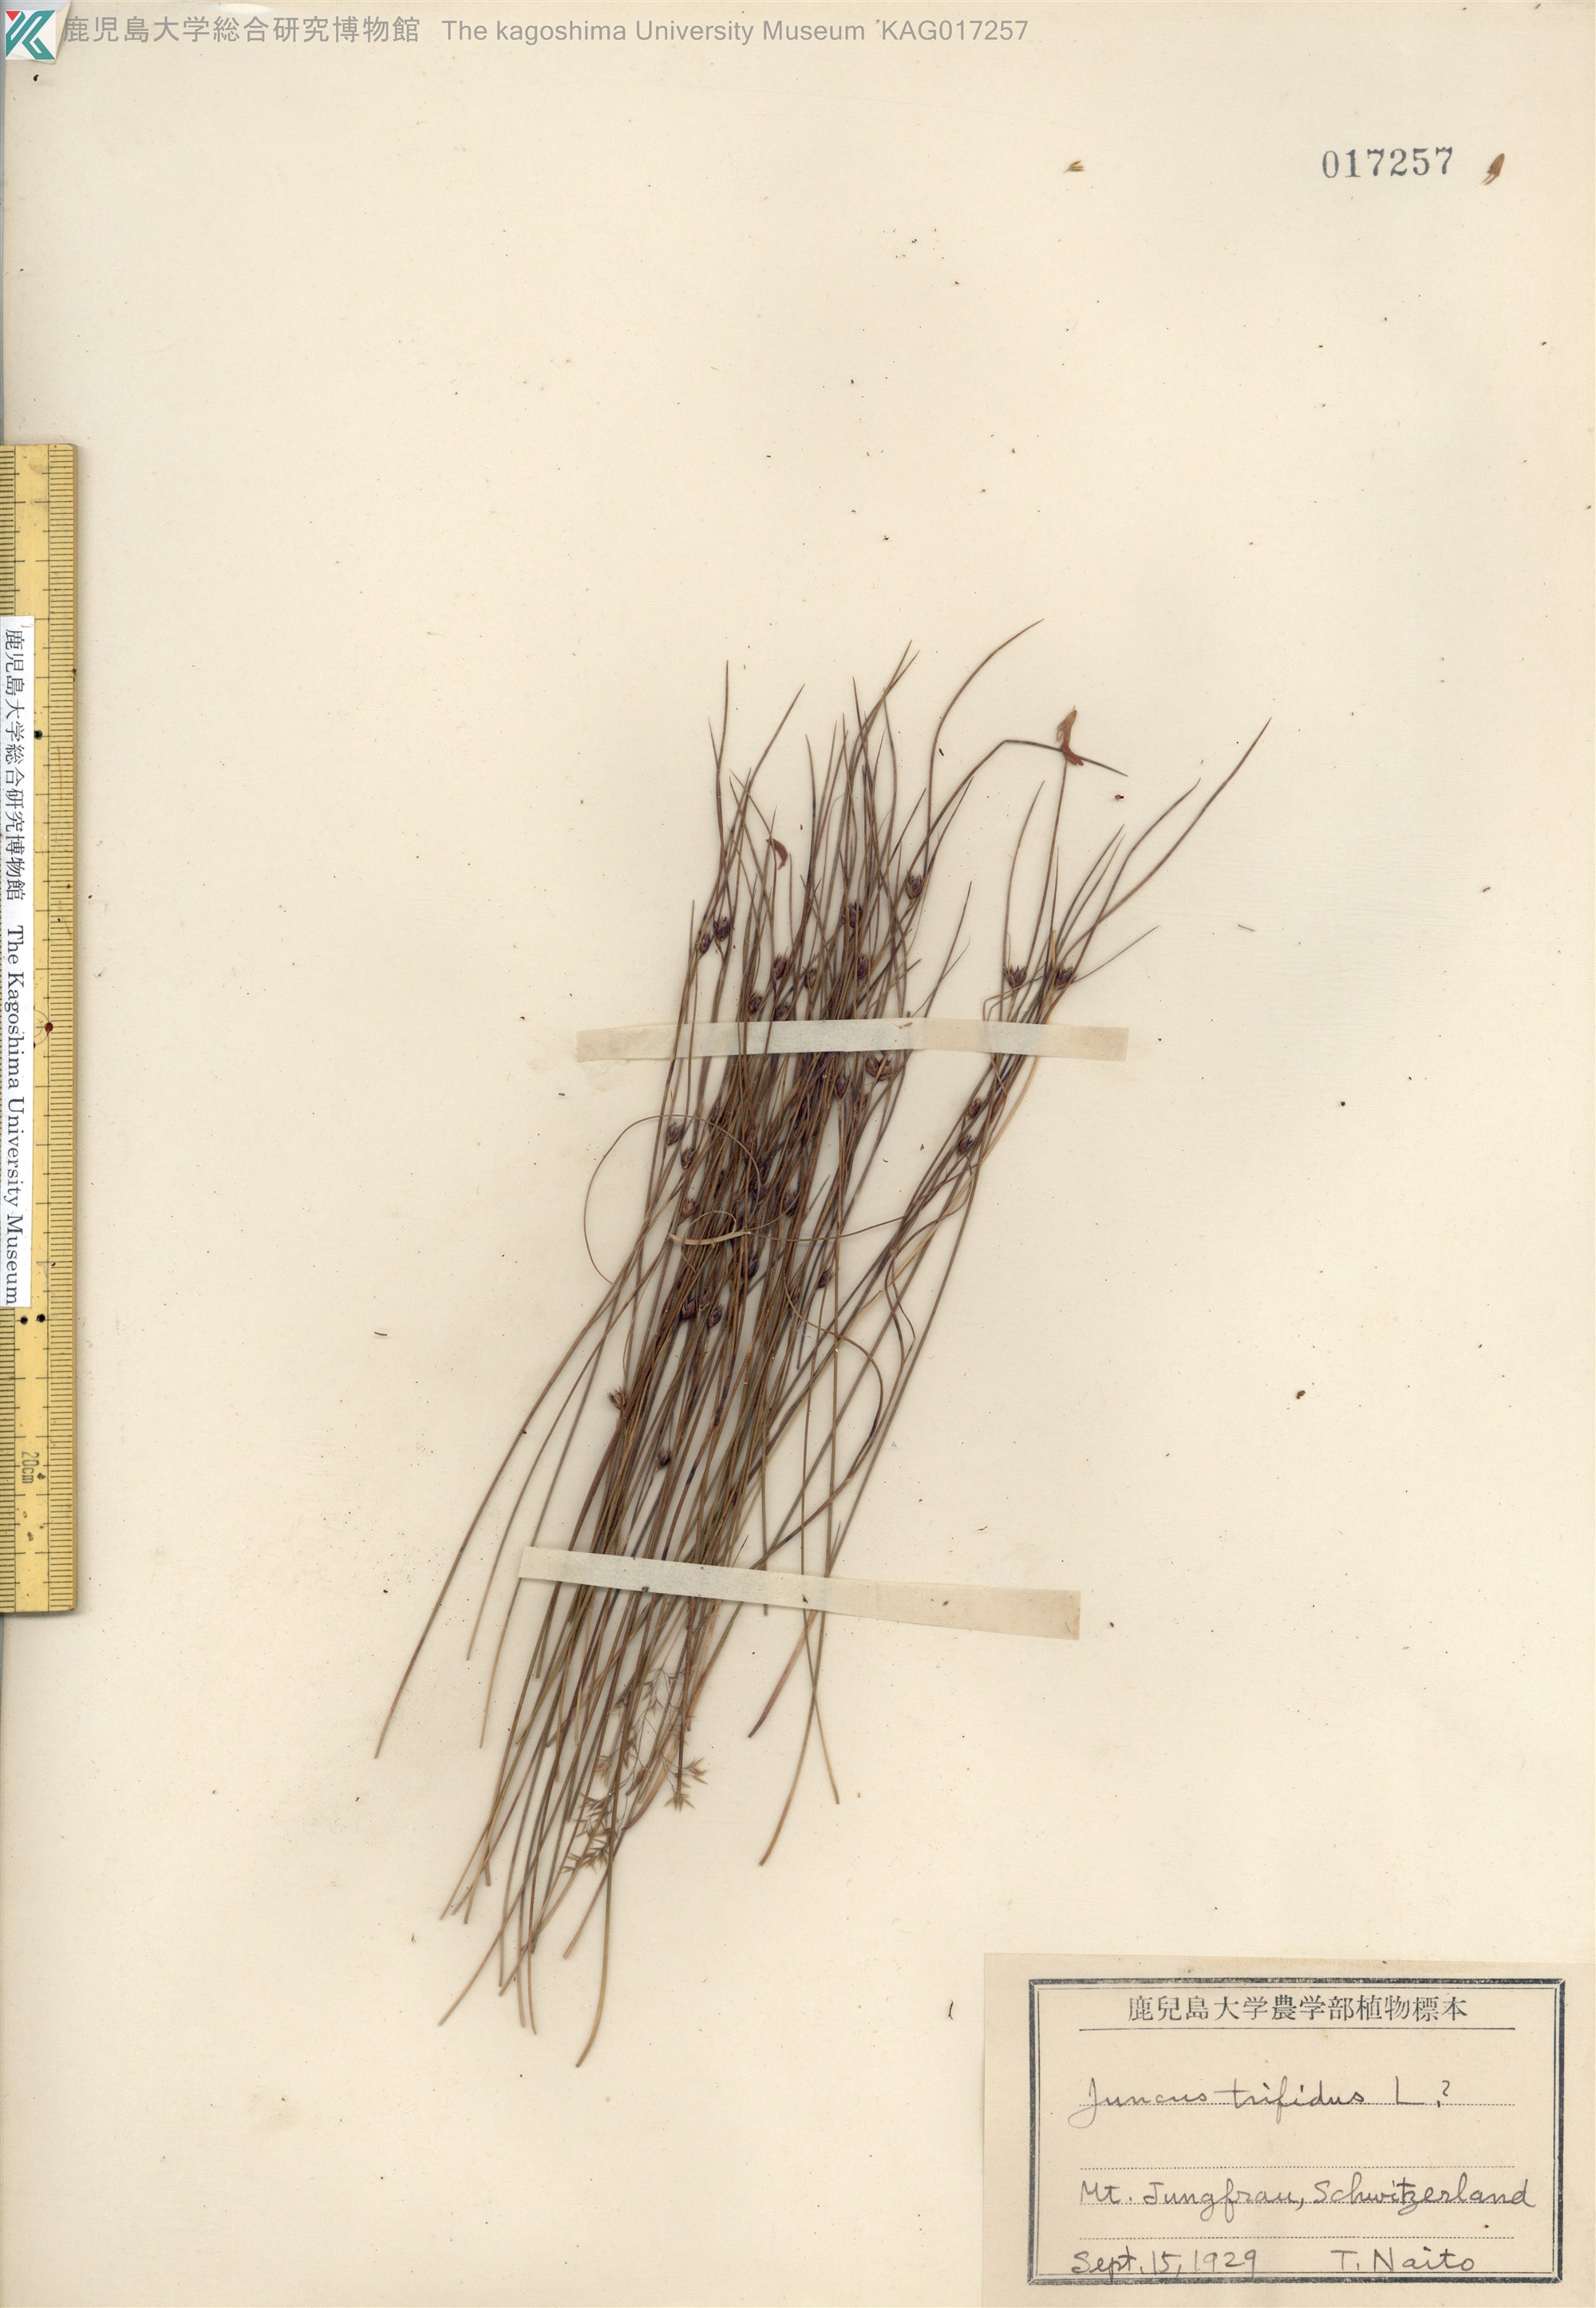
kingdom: Plantae
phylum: Tracheophyta
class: Liliopsida
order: Poales
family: Juncaceae
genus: Oreojuncus
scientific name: Oreojuncus trifidus
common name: Highland rush
